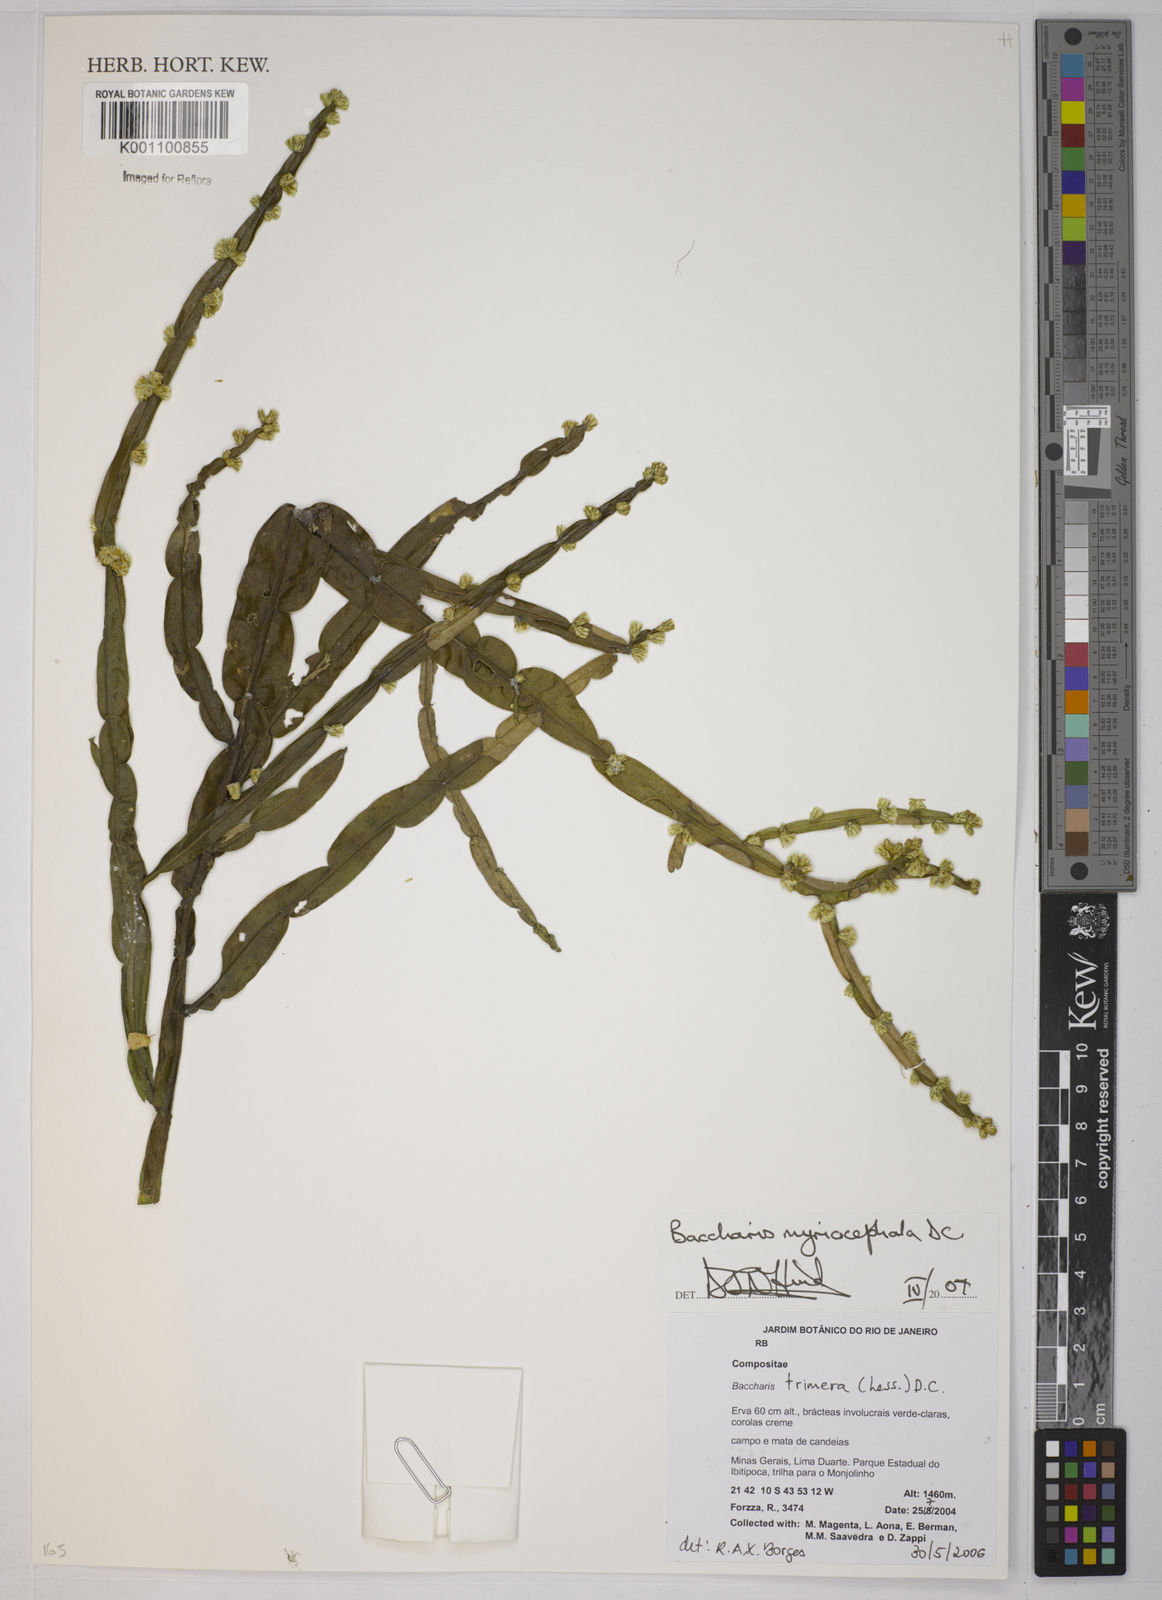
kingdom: Plantae
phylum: Tracheophyta
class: Magnoliopsida
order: Asterales
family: Asteraceae
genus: Baccharis
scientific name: Baccharis myriocephala
